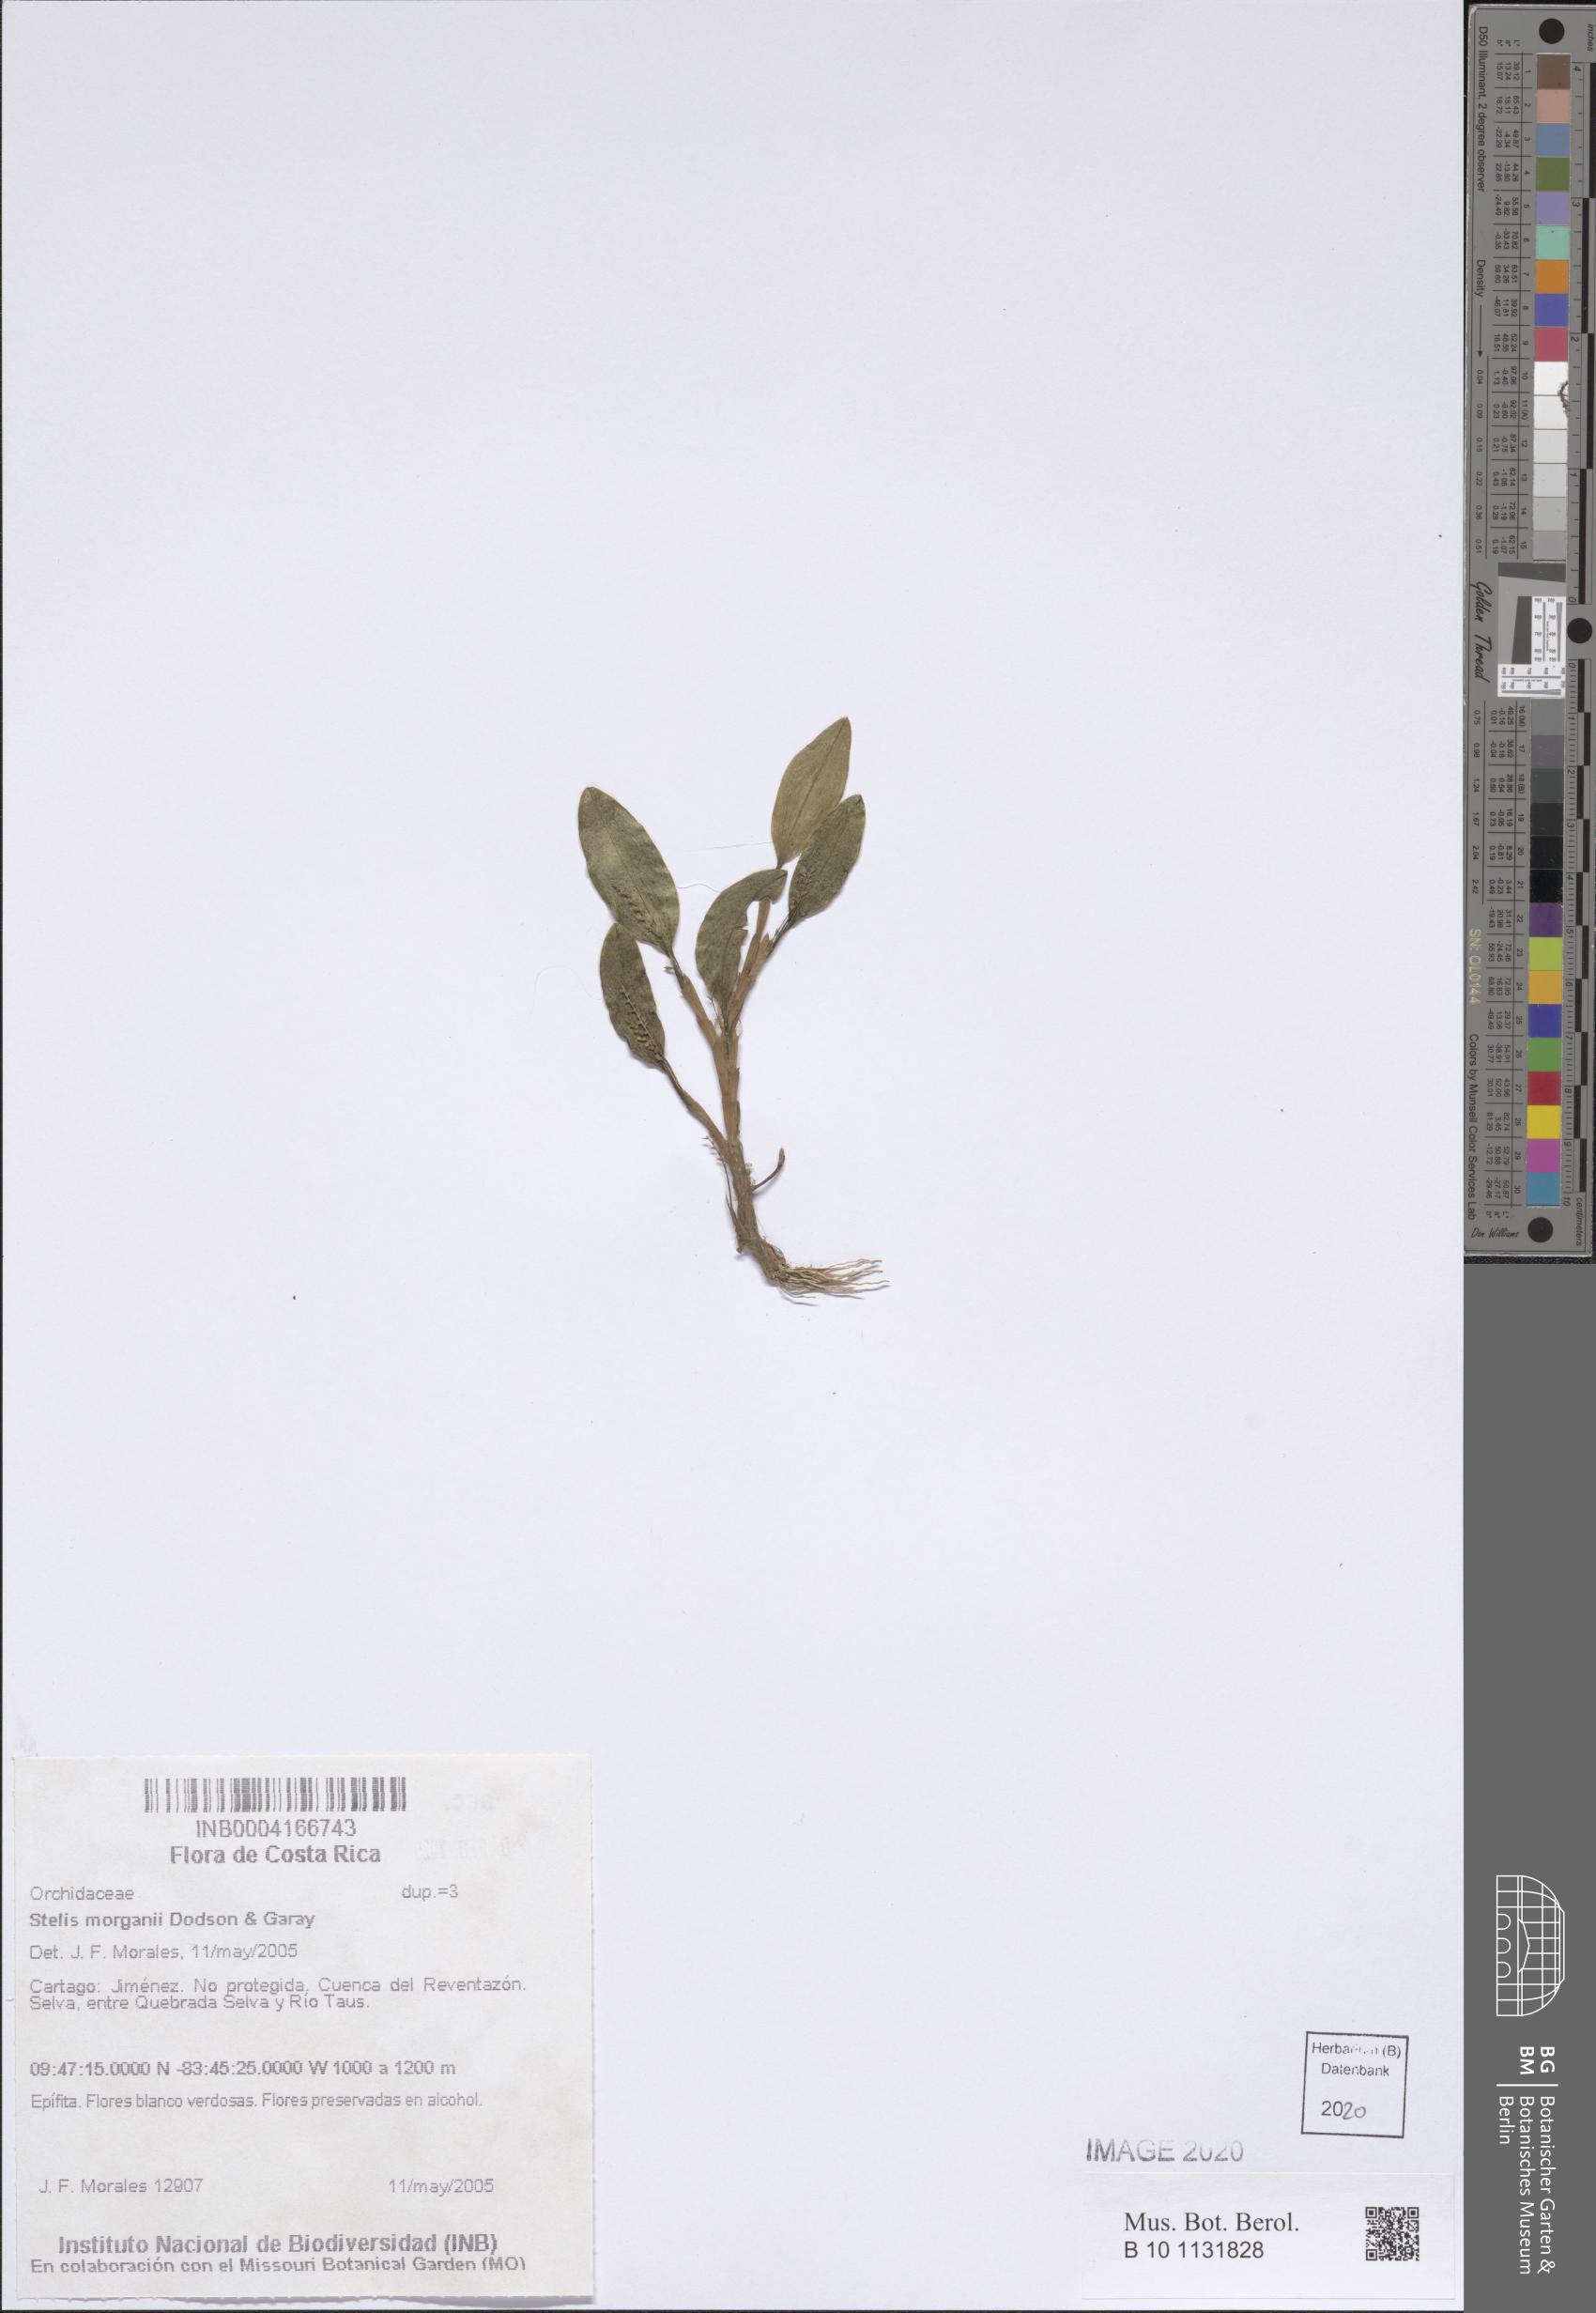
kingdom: Plantae
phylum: Tracheophyta
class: Liliopsida
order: Asparagales
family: Orchidaceae
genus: Stelis
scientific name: Stelis morganii
